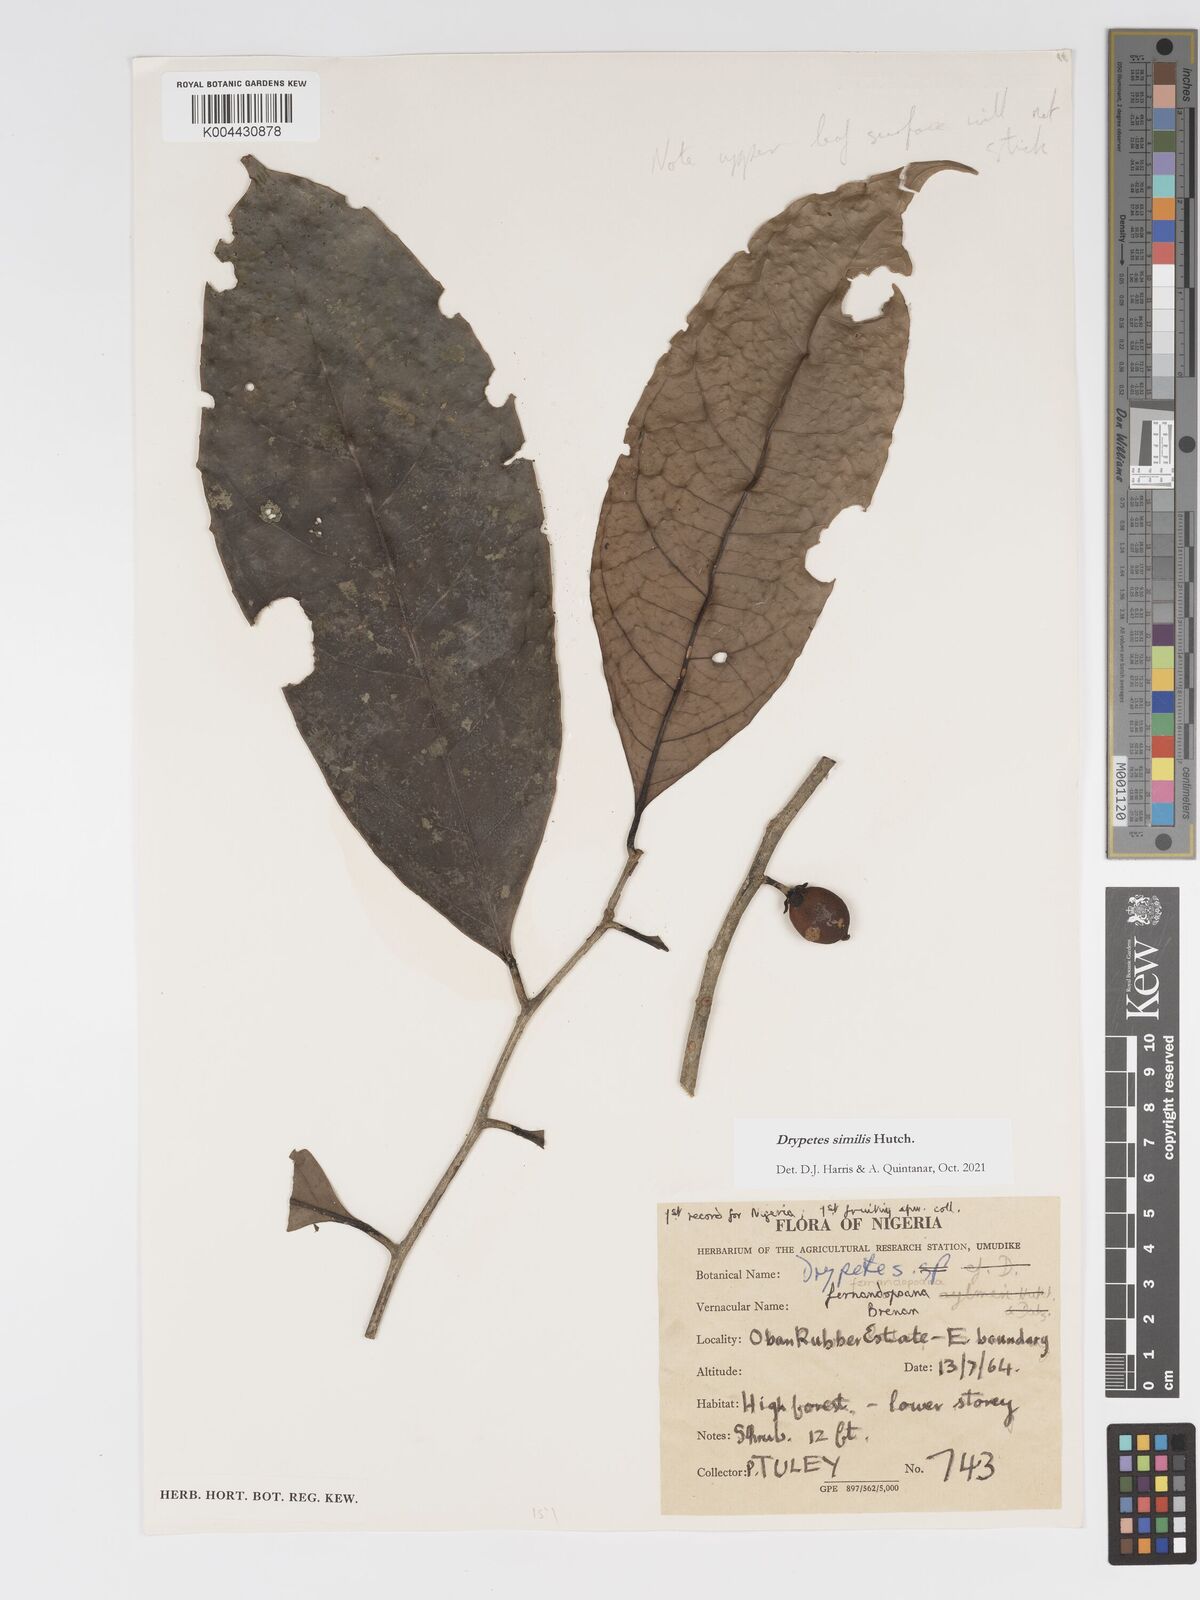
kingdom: Plantae
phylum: Tracheophyta
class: Magnoliopsida
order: Malpighiales
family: Putranjivaceae
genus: Drypetes
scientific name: Drypetes similis
